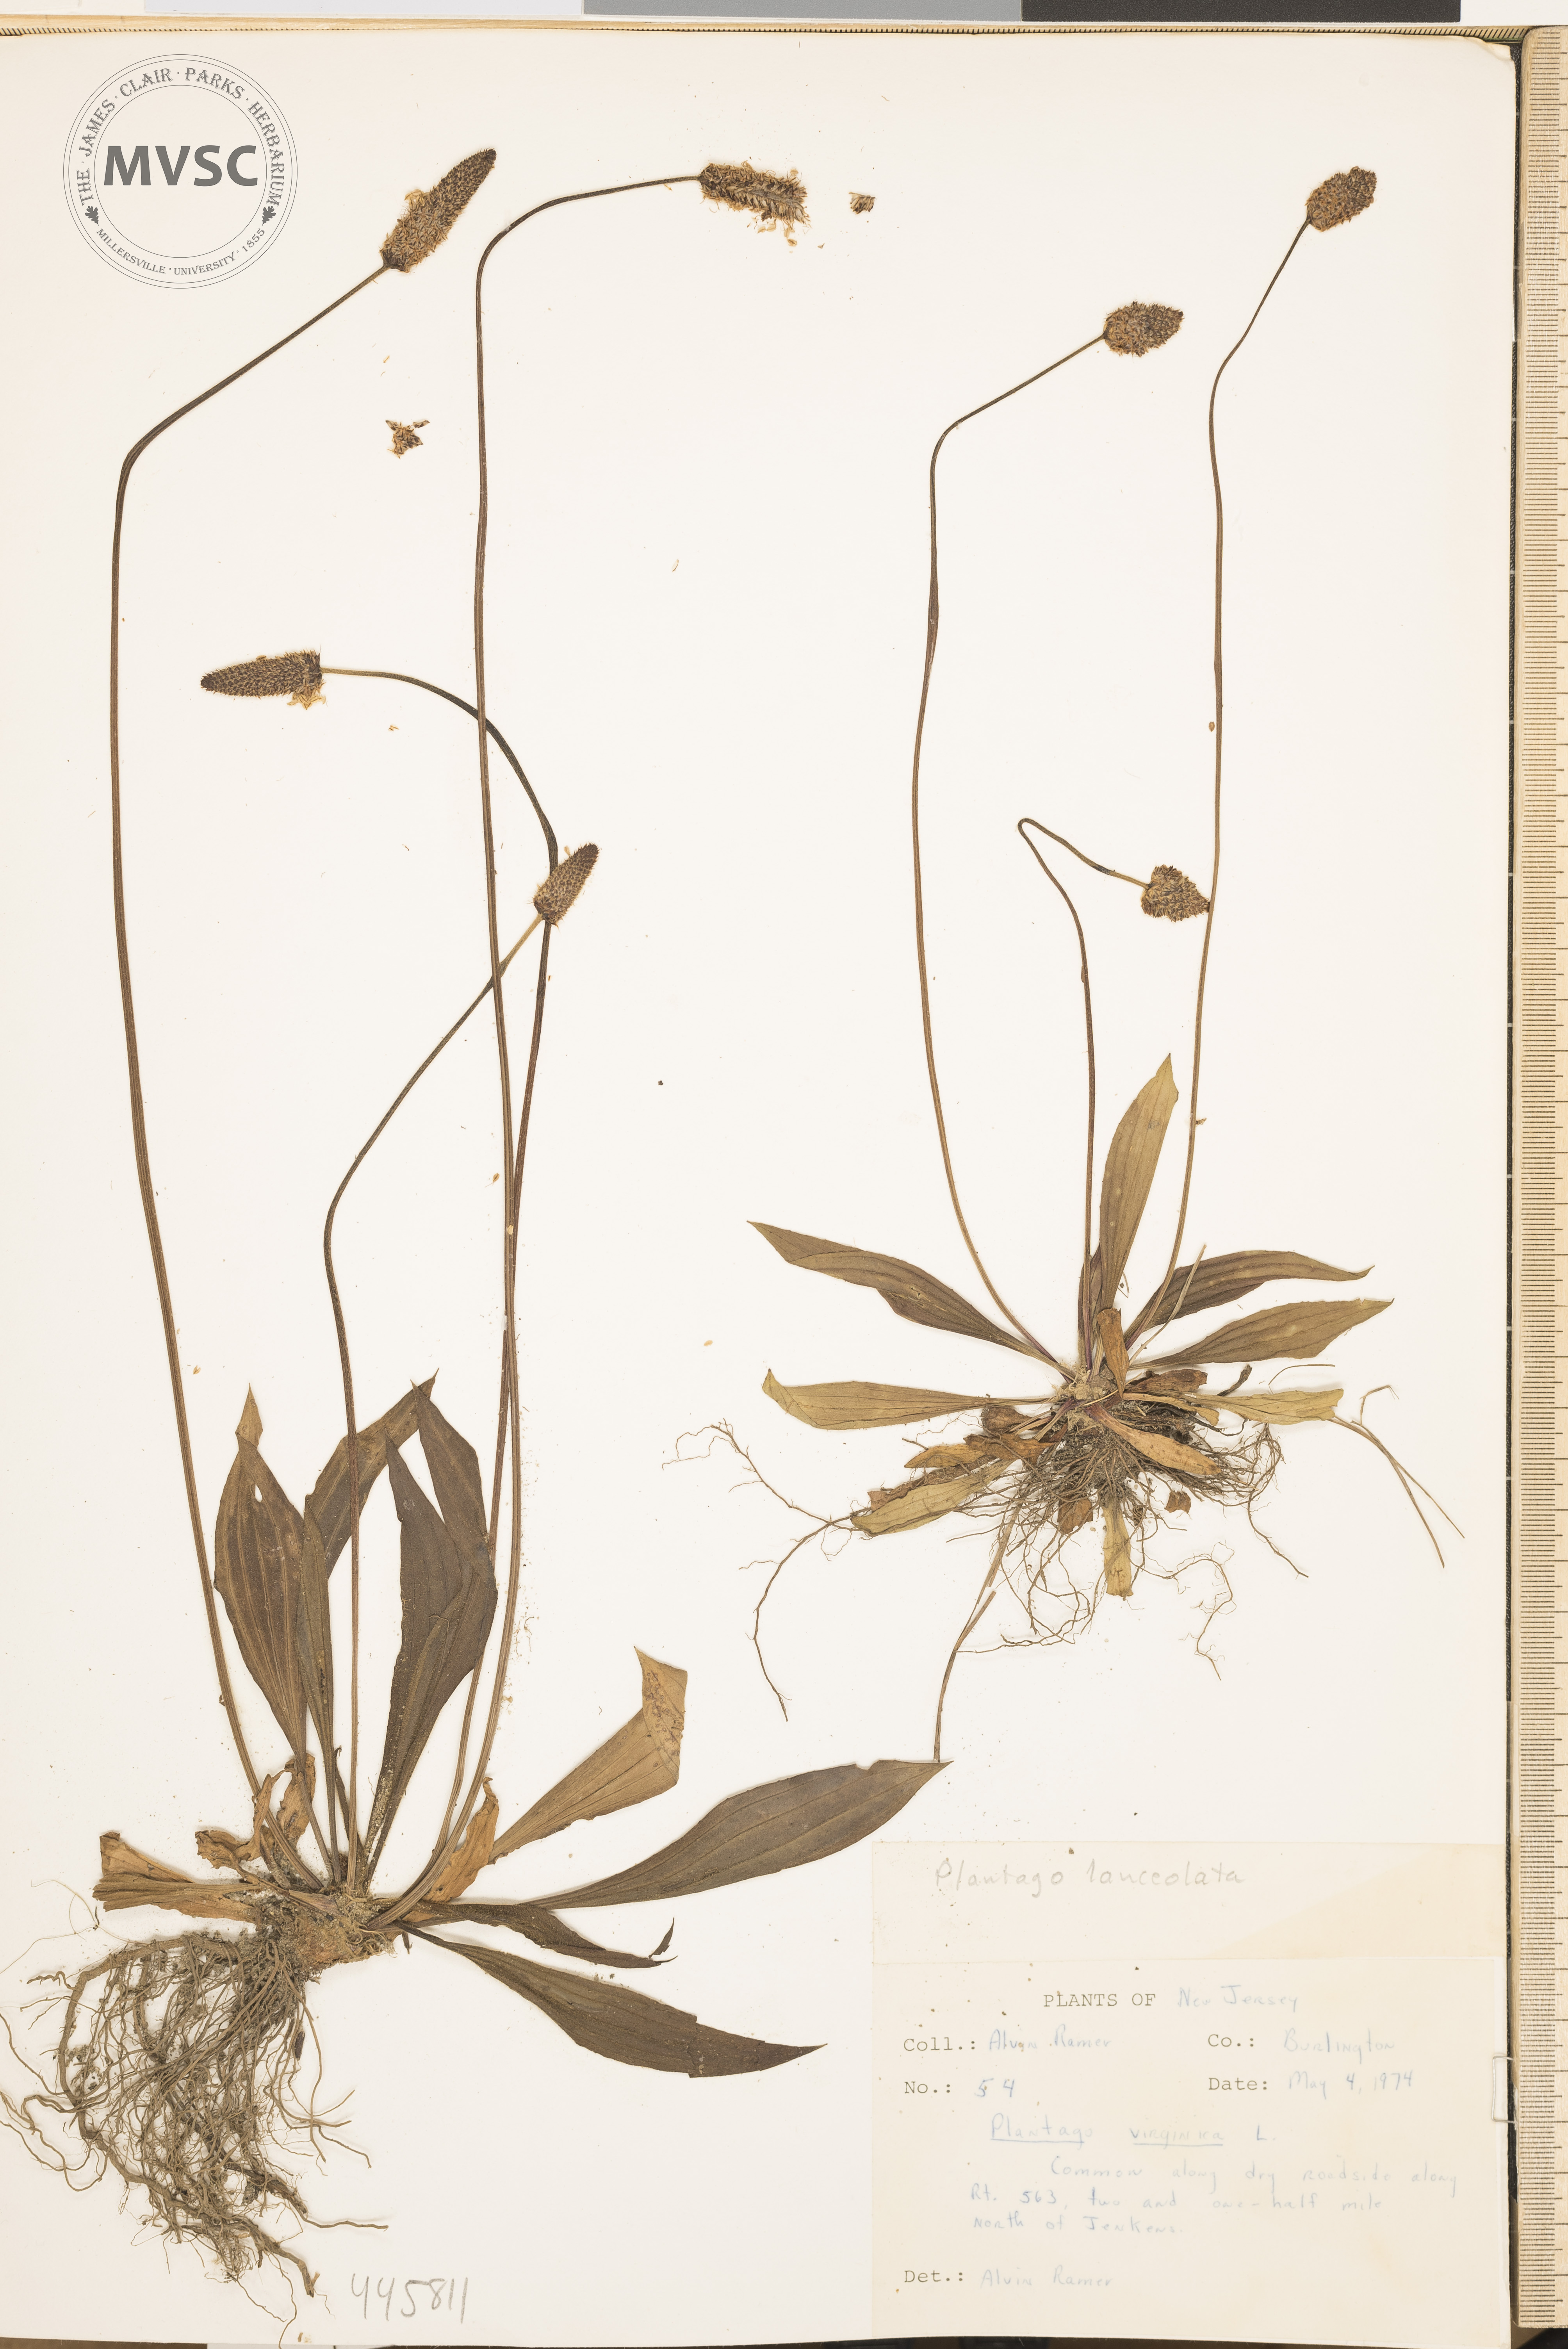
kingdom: Plantae
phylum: Tracheophyta
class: Magnoliopsida
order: Lamiales
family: Plantaginaceae
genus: Plantago
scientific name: Plantago lanceolata
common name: Ribwort plantain
